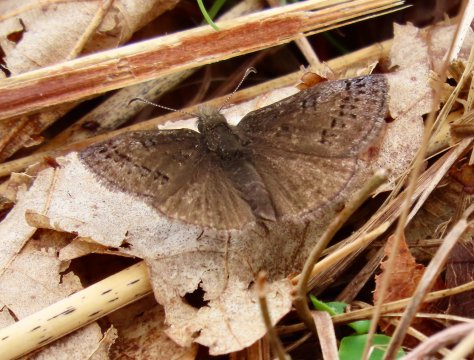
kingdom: Animalia
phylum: Arthropoda
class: Insecta
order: Lepidoptera
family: Hesperiidae
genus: Erynnis
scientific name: Erynnis brizo
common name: Sleepy Duskywing
